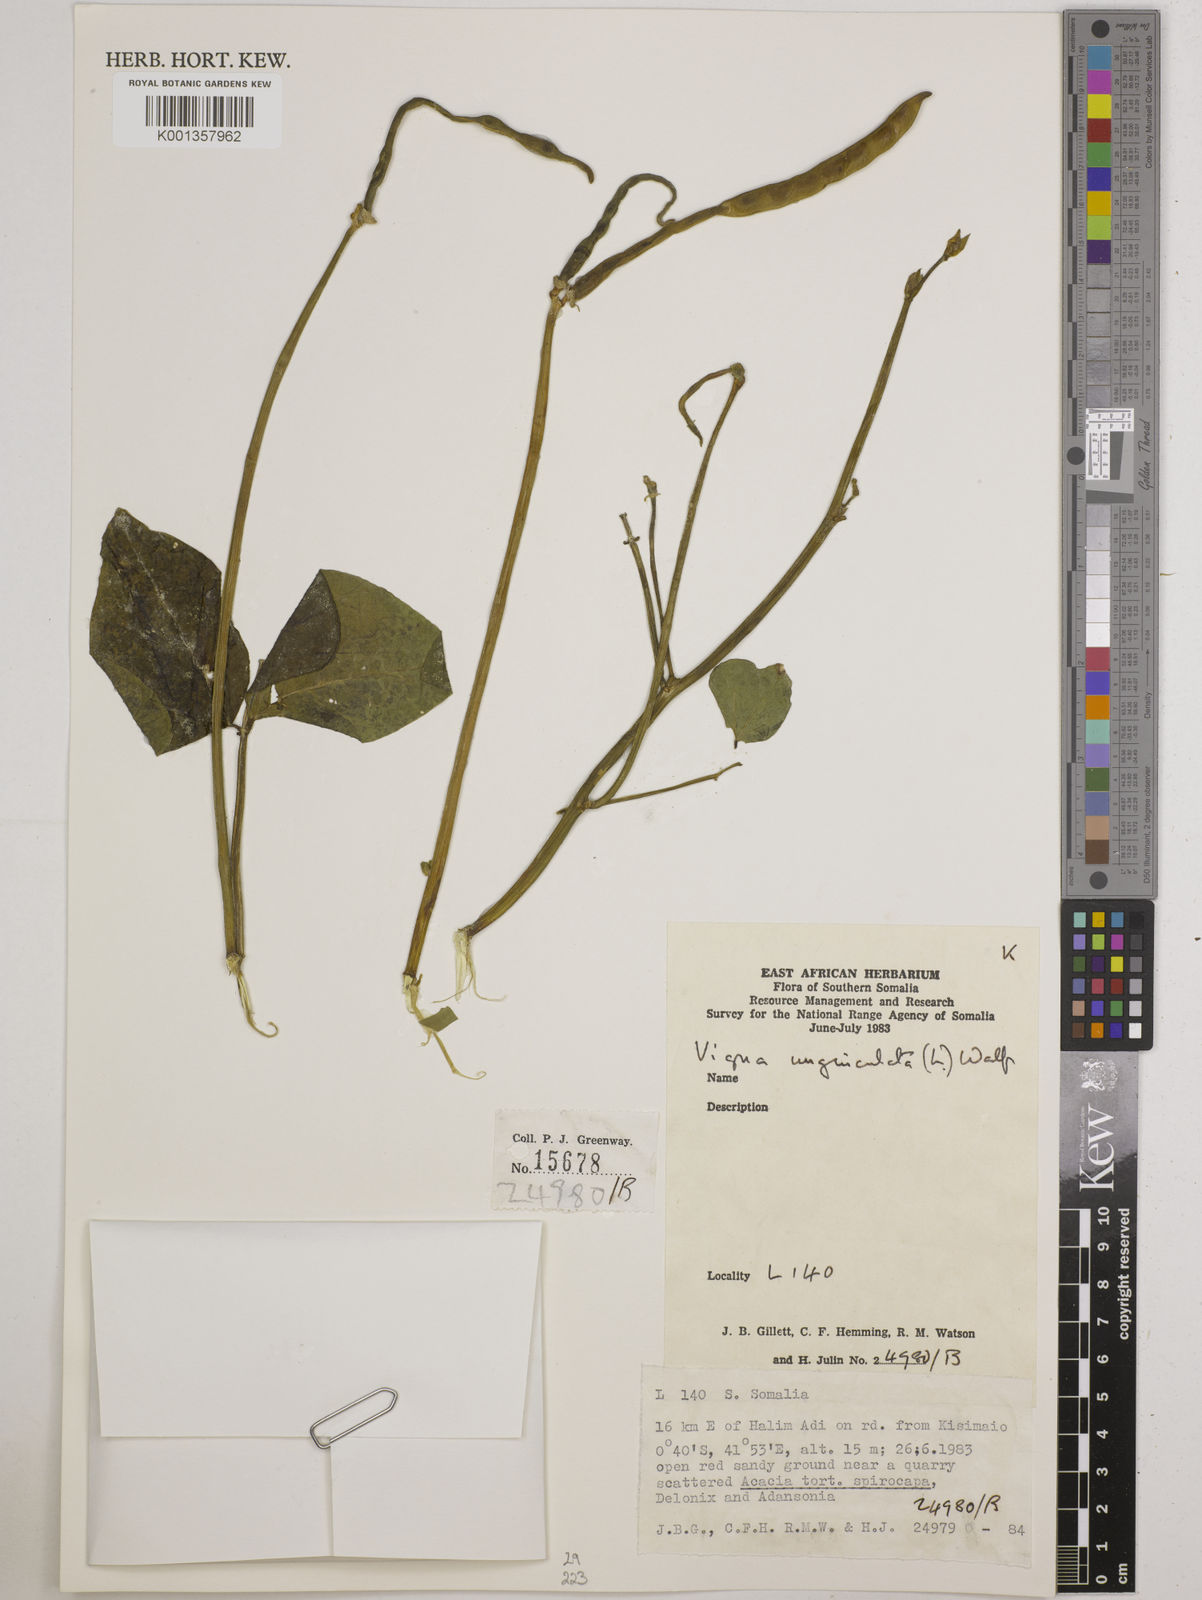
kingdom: Plantae
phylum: Tracheophyta
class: Magnoliopsida
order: Fabales
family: Fabaceae
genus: Vigna
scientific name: Vigna unguiculata
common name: Cowpea
